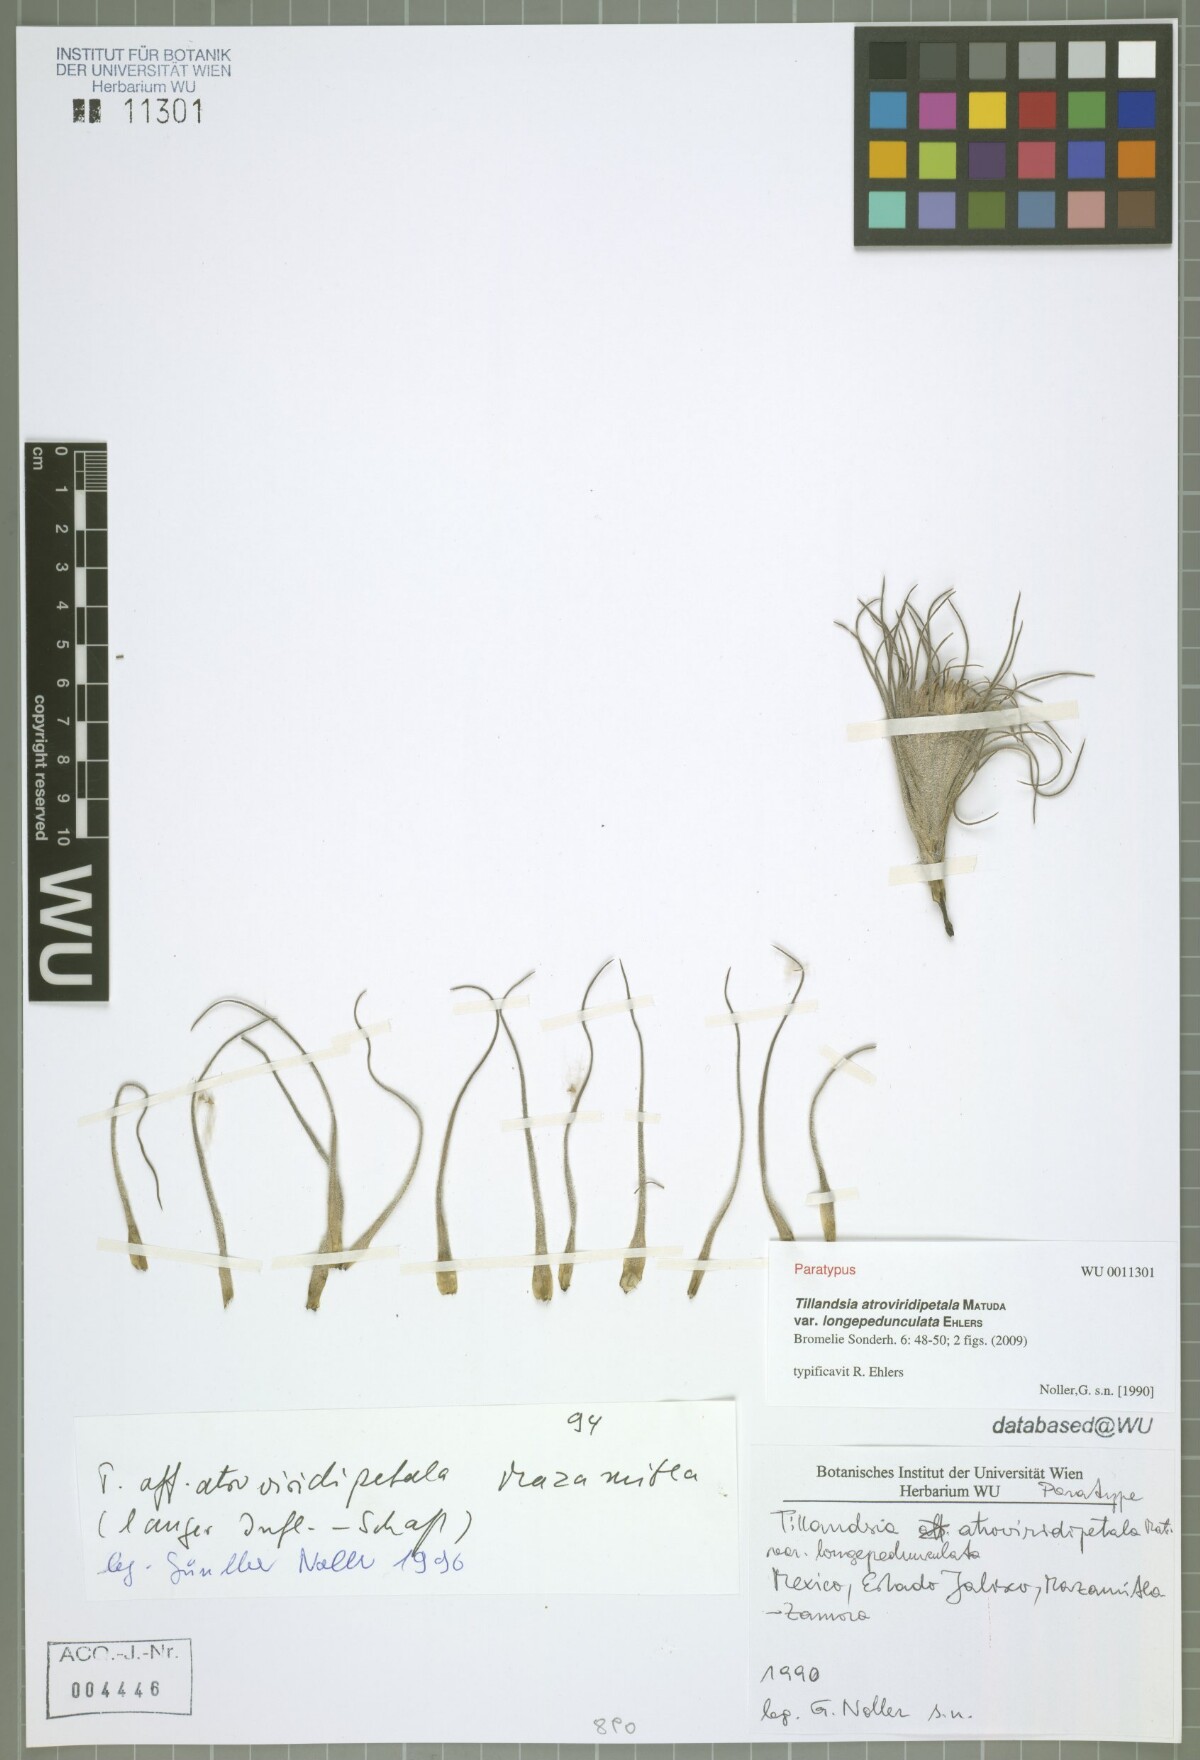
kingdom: Plantae
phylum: Tracheophyta
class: Liliopsida
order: Poales
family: Bromeliaceae
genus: Tillandsia
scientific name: Tillandsia atroviridipetala
